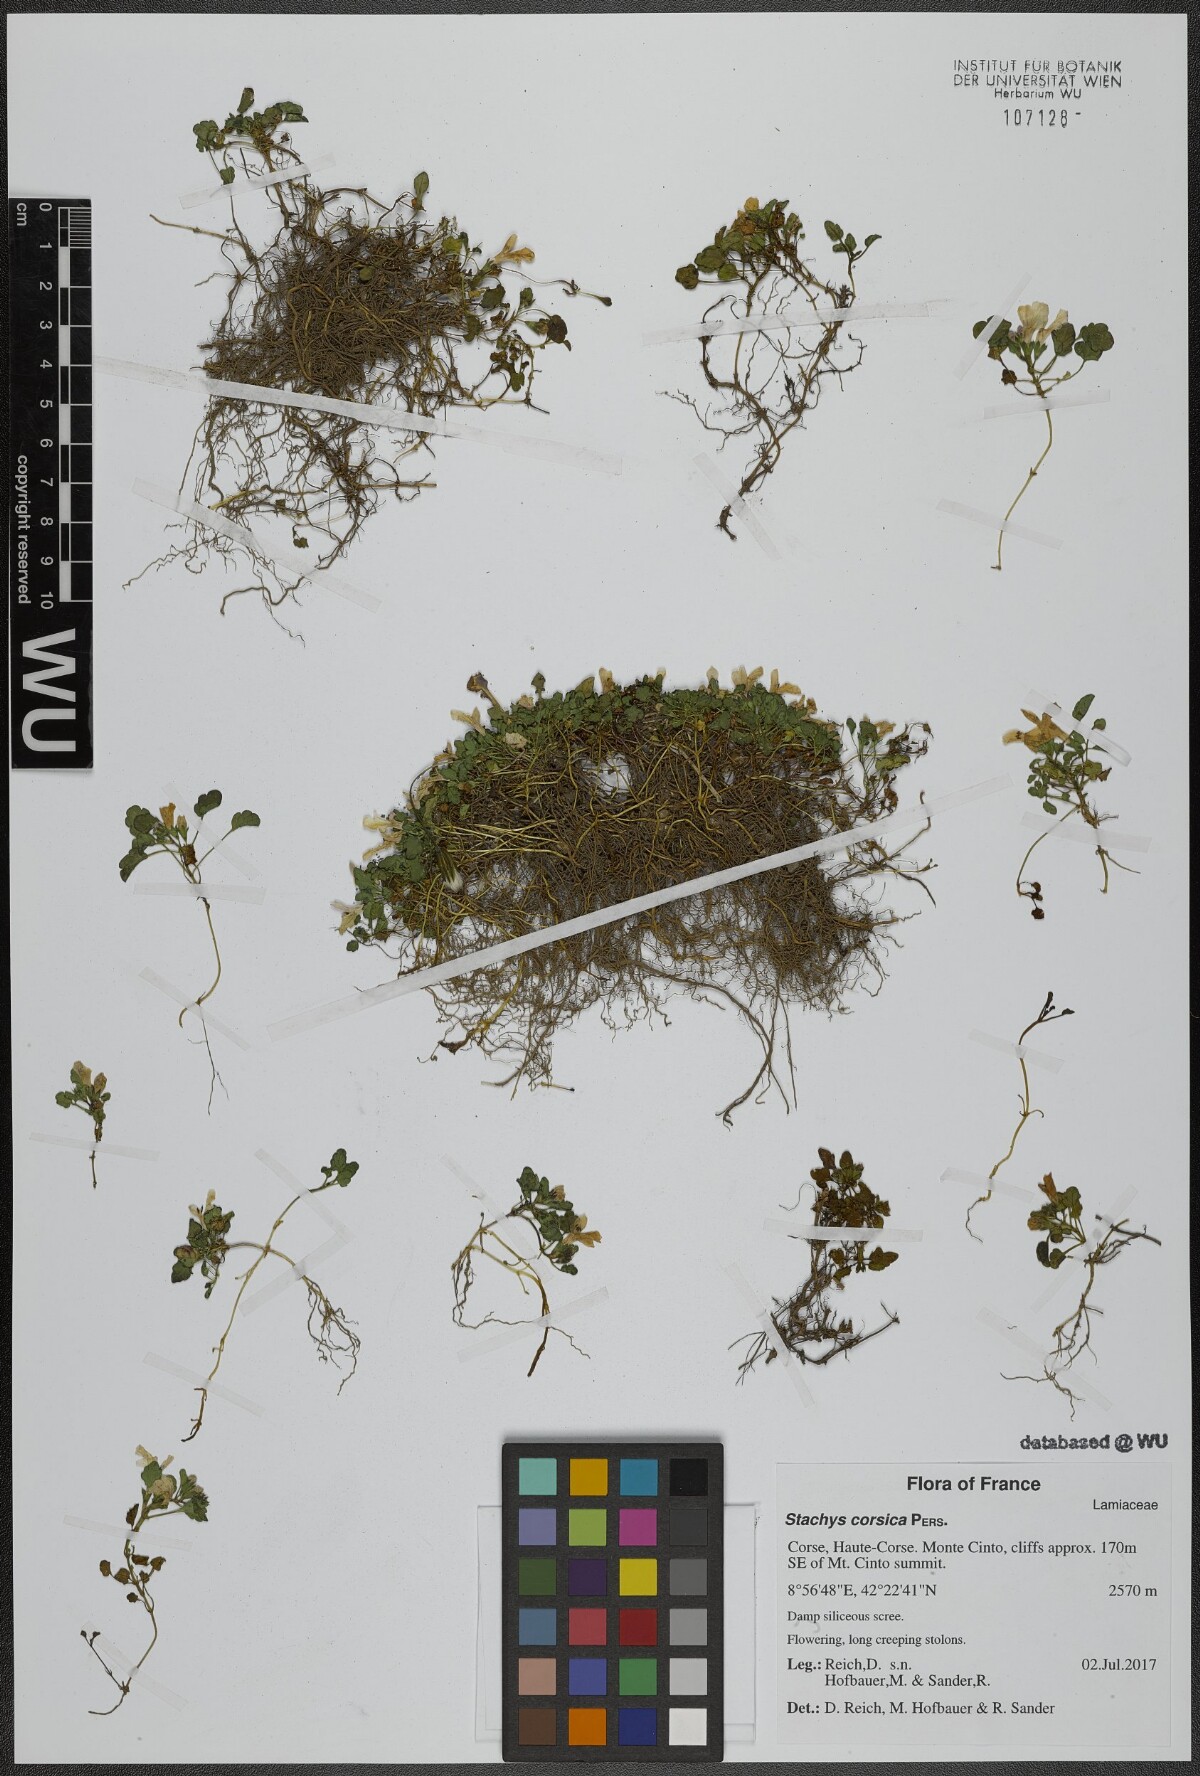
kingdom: Plantae
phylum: Tracheophyta
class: Magnoliopsida
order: Lamiales
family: Lamiaceae
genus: Stachys
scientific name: Stachys corsica
